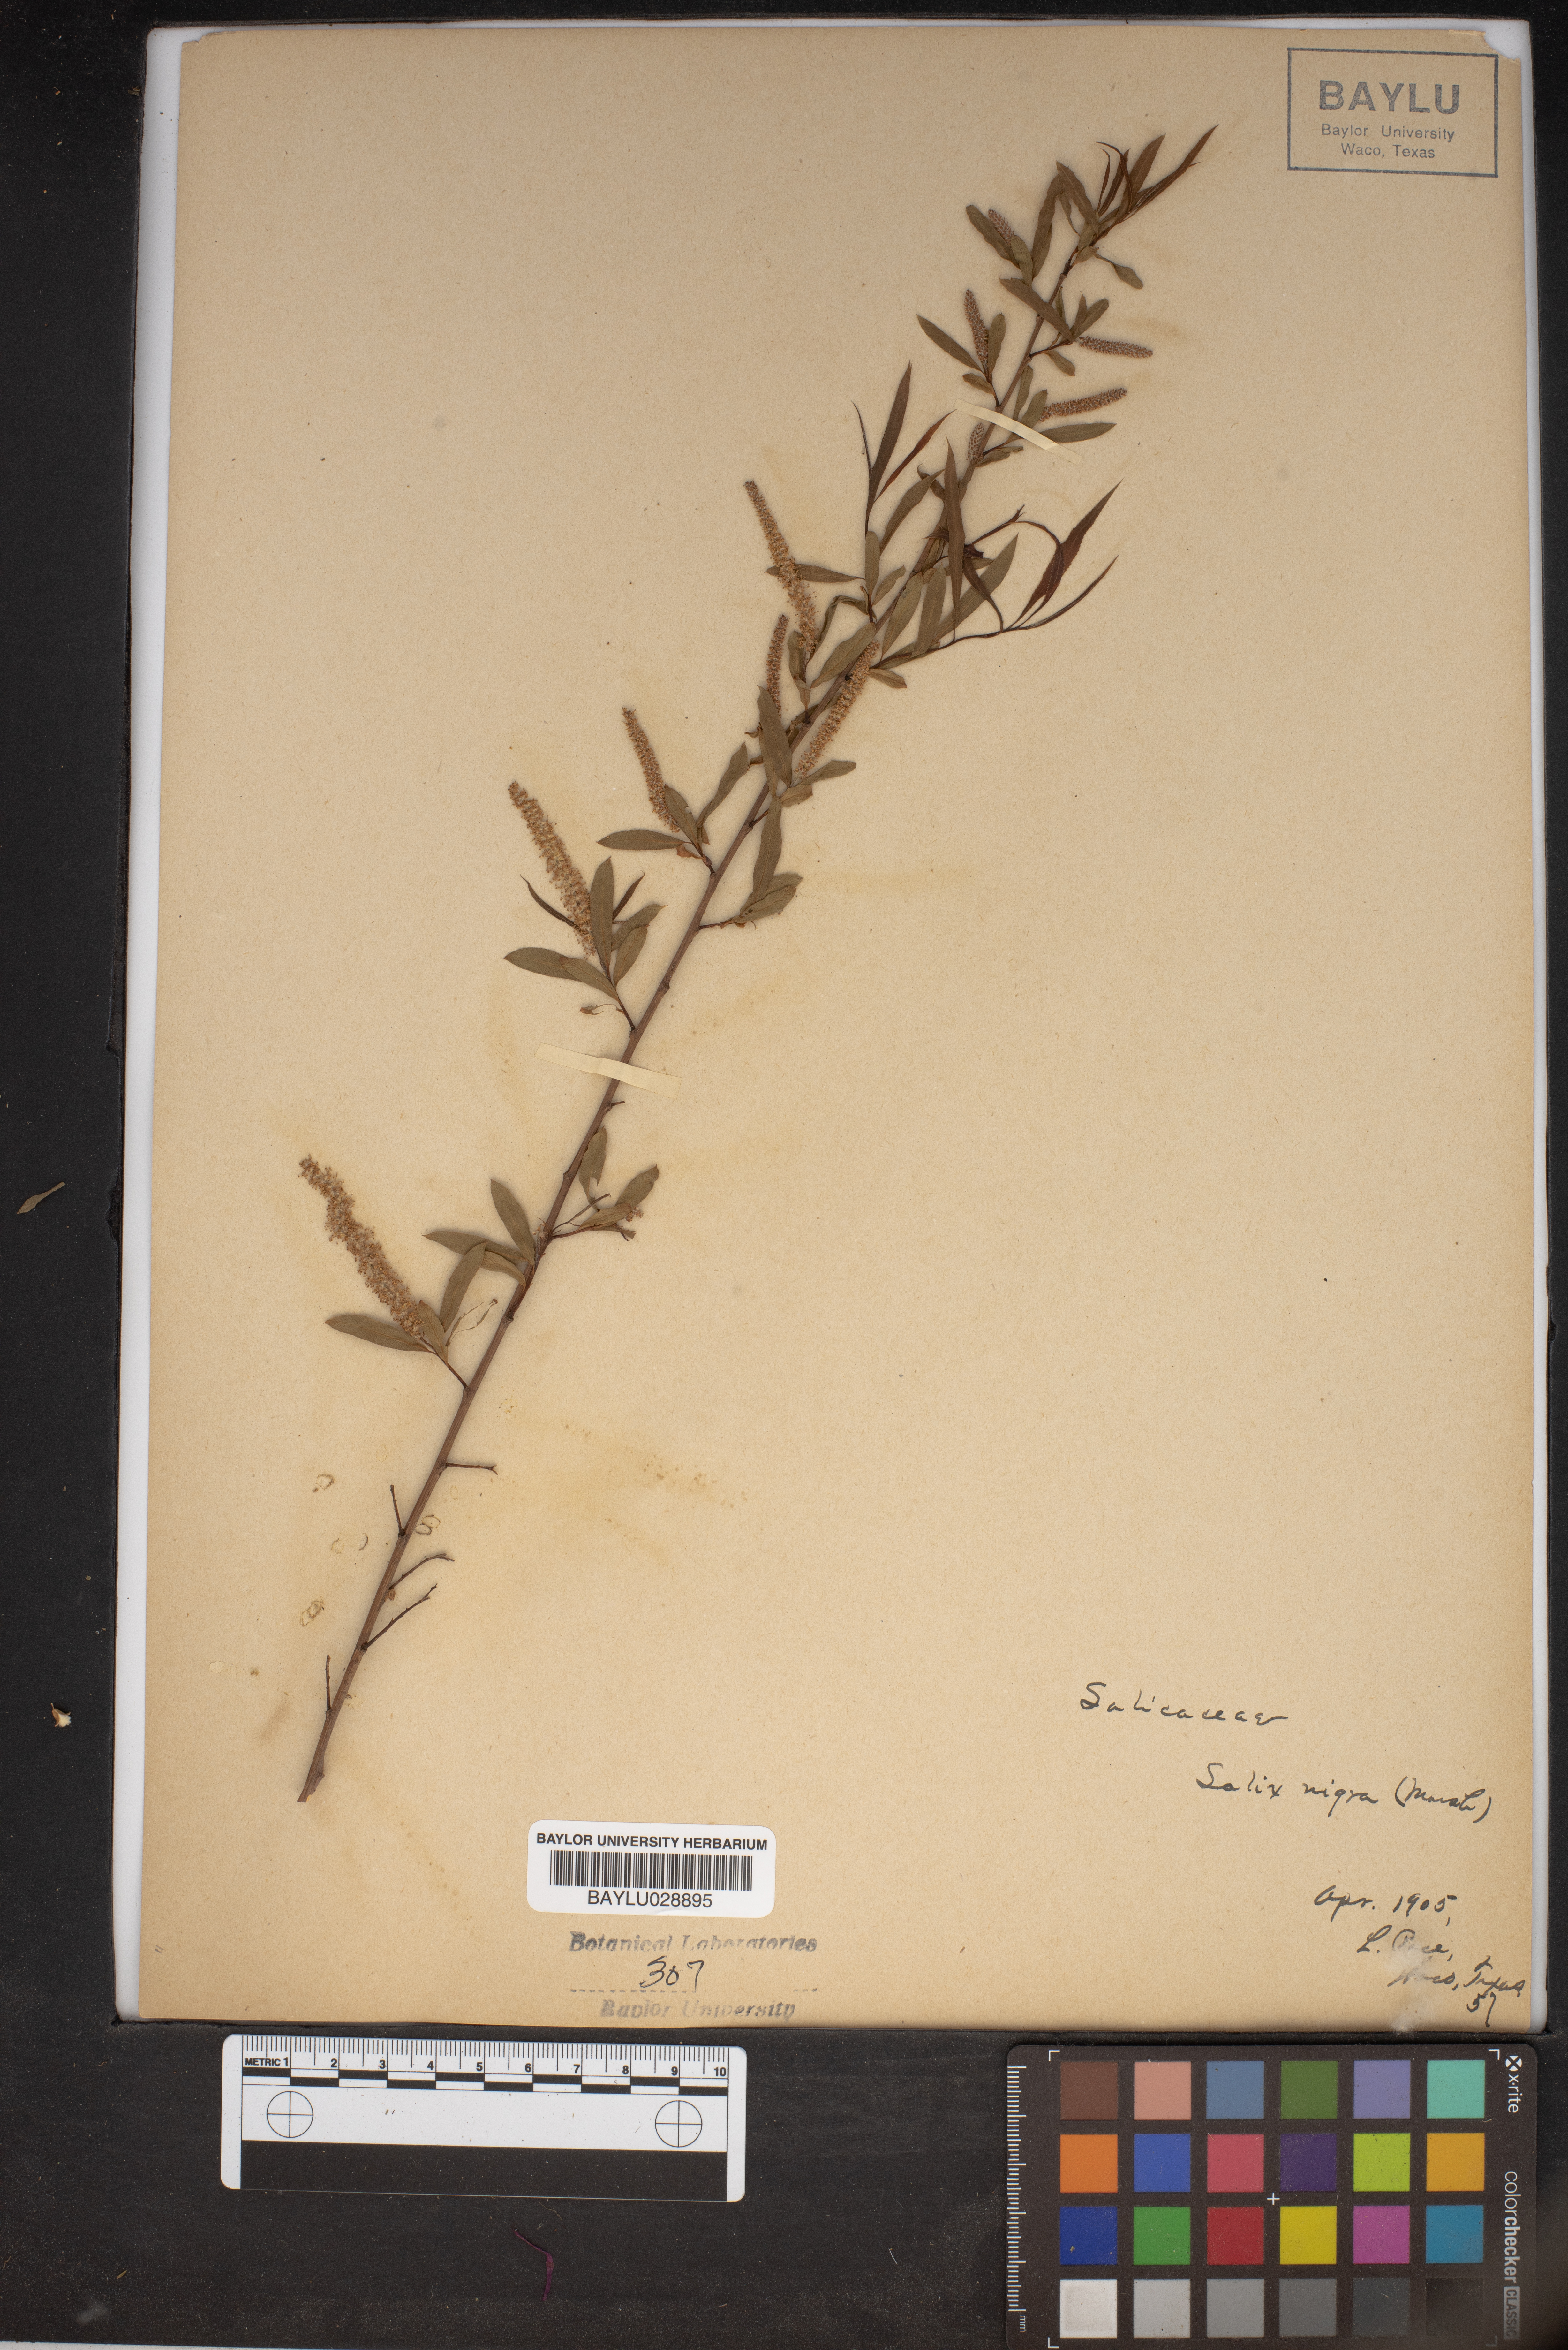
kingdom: Plantae
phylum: Tracheophyta
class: Magnoliopsida
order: Malpighiales
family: Salicaceae
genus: Salix
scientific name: Salix nigra
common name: Black willow
